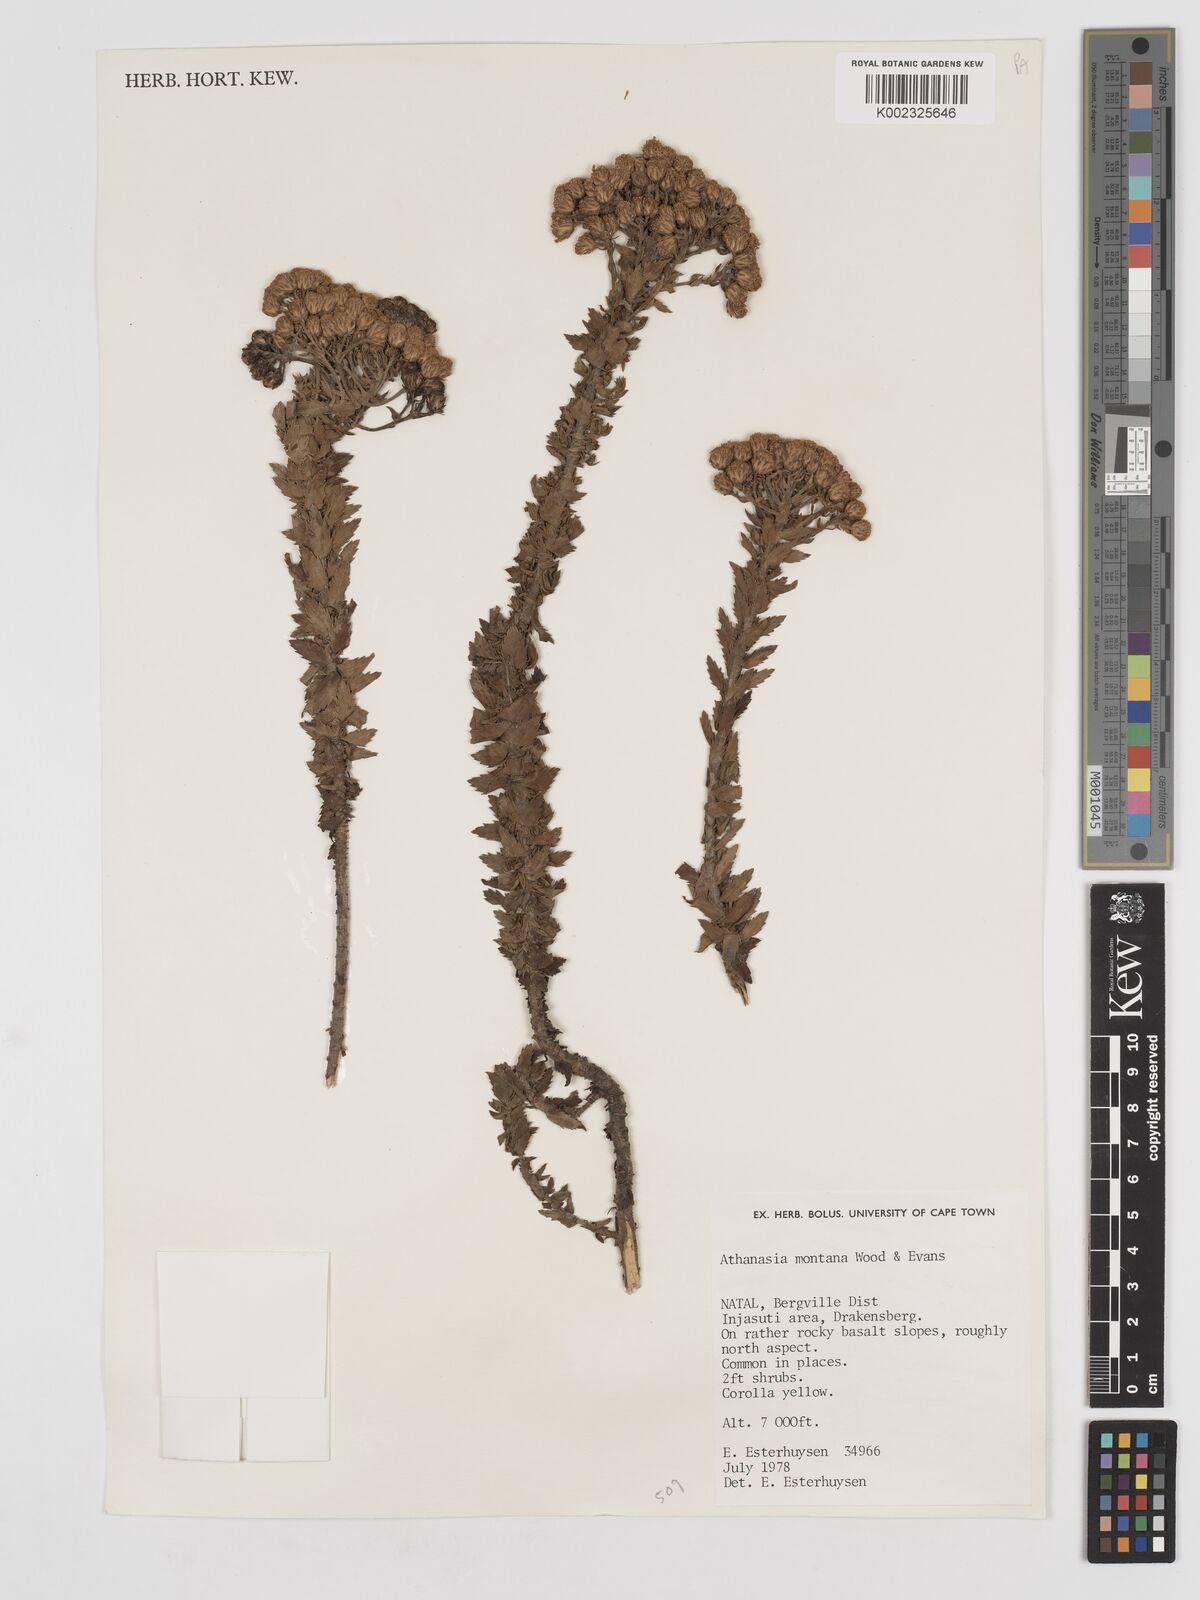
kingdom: Plantae
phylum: Tracheophyta
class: Magnoliopsida
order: Asterales
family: Asteraceae
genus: Inulanthera
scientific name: Inulanthera montana
